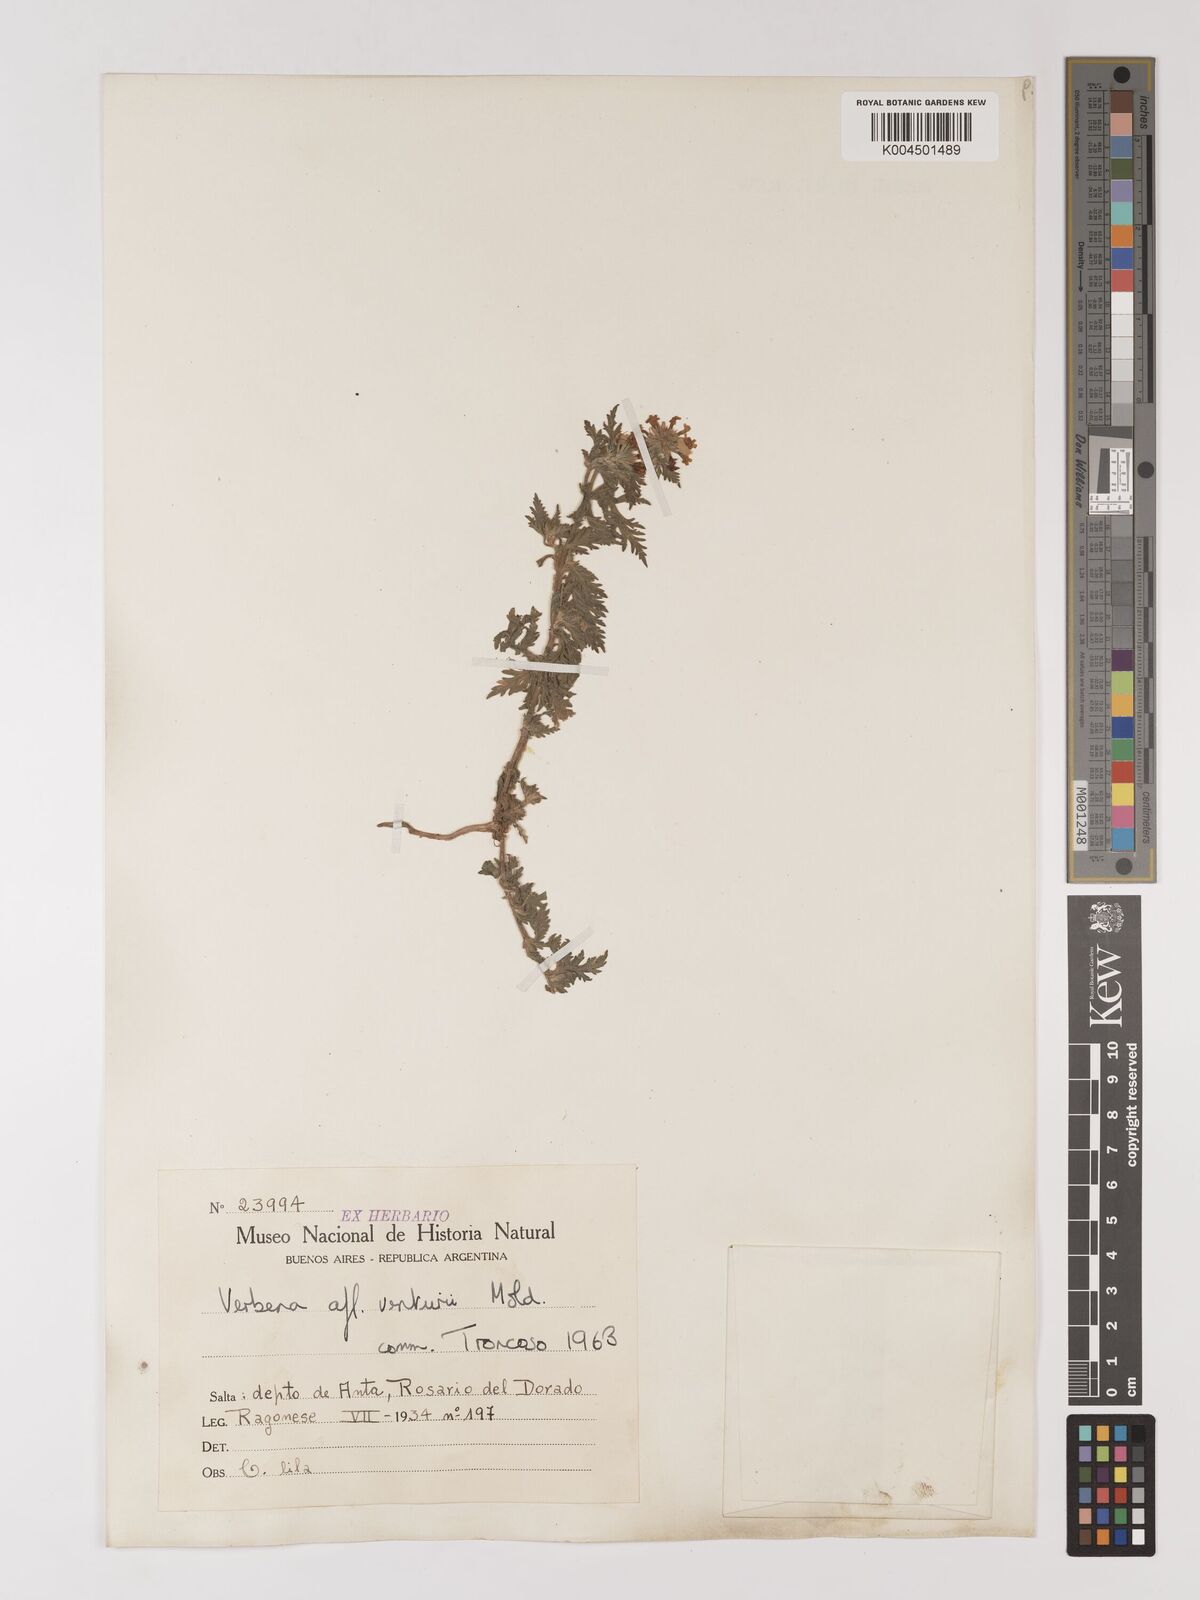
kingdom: Plantae
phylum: Tracheophyta
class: Magnoliopsida
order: Lamiales
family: Verbenaceae
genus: Verbena
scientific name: Verbena venturii
